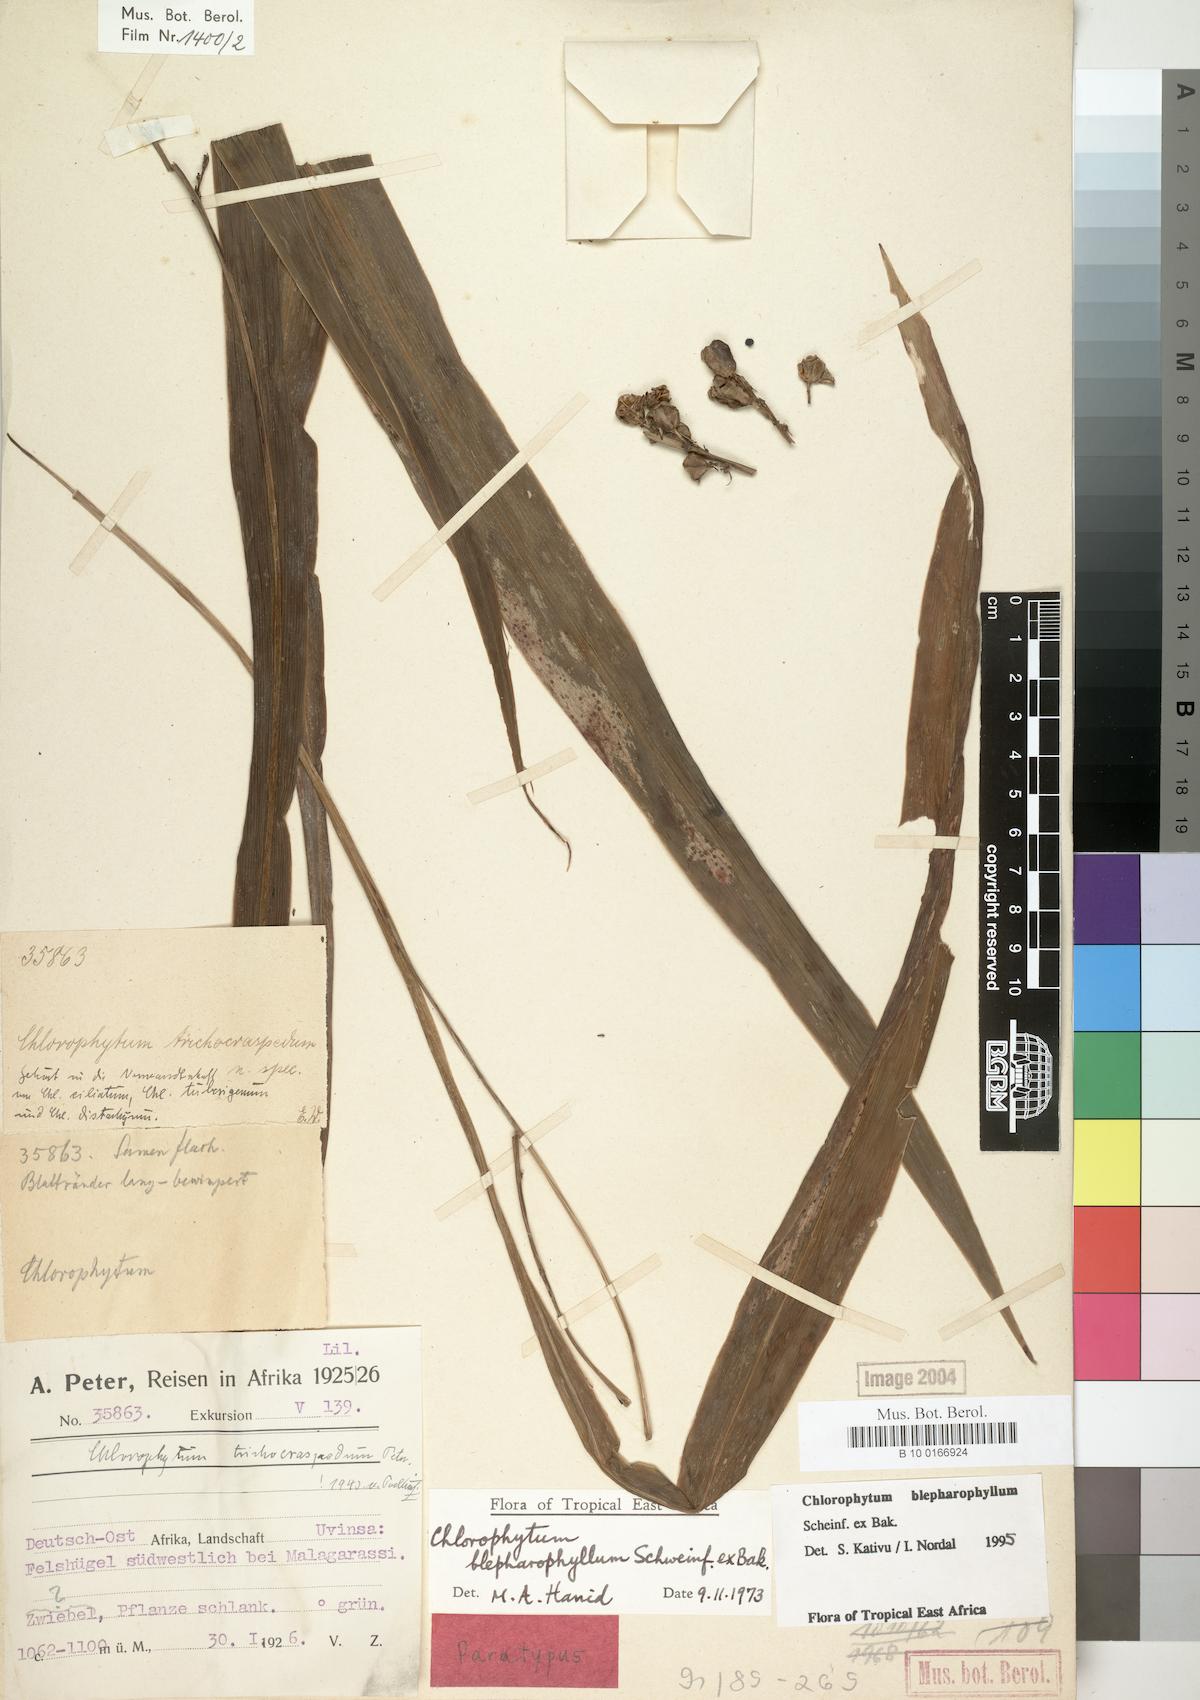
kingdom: Plantae
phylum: Tracheophyta
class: Liliopsida
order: Asparagales
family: Asparagaceae
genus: Chlorophytum
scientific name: Chlorophytum blepharophyllum
